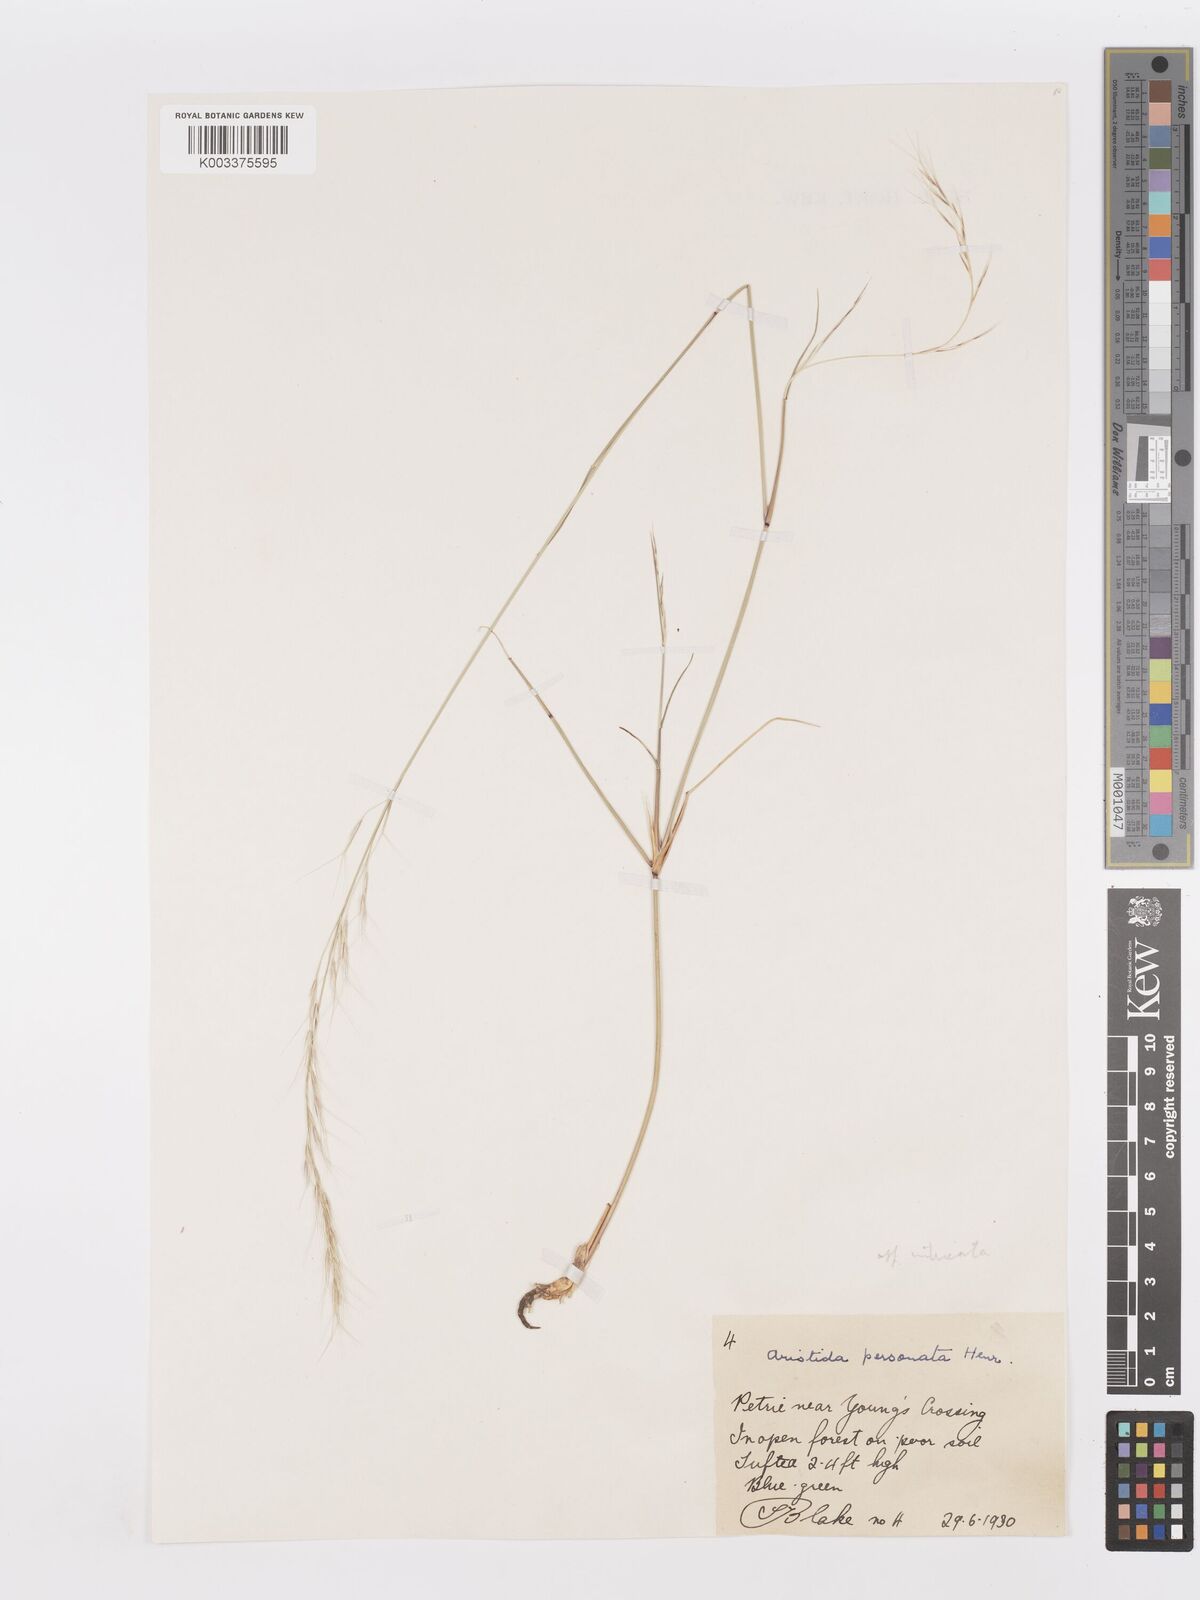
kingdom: Plantae
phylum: Tracheophyta
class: Liliopsida
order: Poales
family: Poaceae
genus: Aristida
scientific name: Aristida personata
